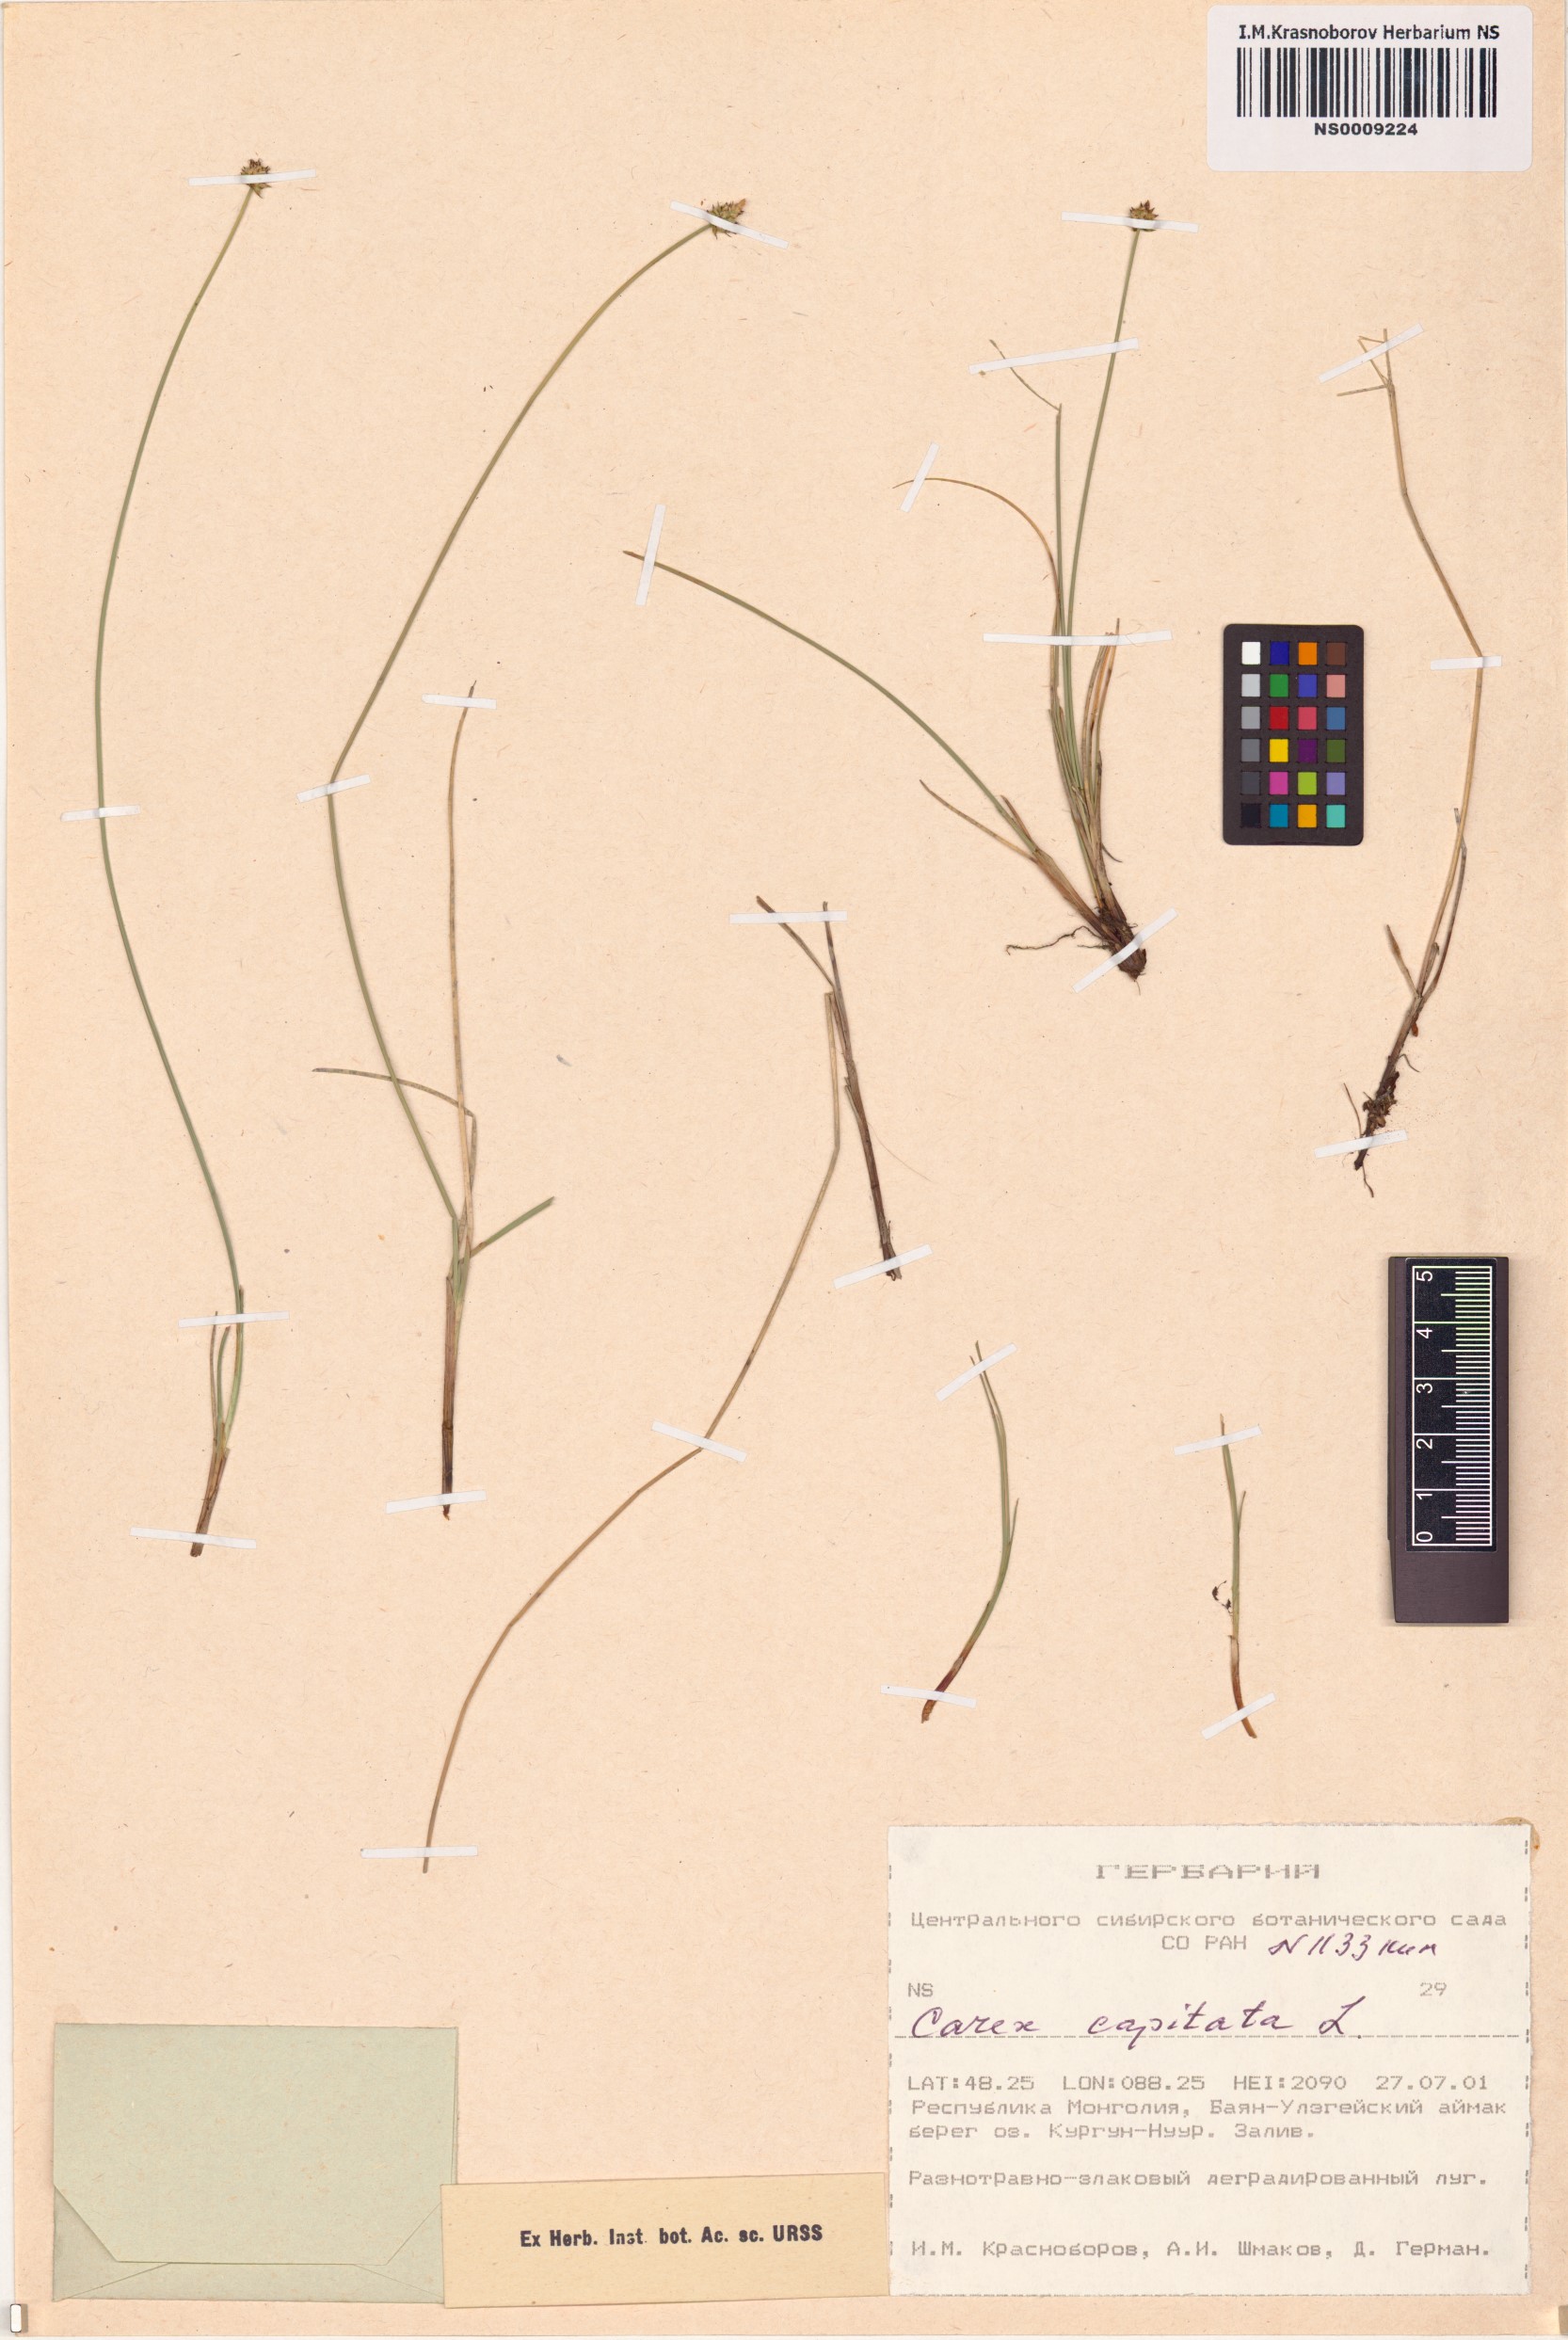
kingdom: Plantae
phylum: Tracheophyta
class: Liliopsida
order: Poales
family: Cyperaceae
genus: Carex
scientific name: Carex capitata
